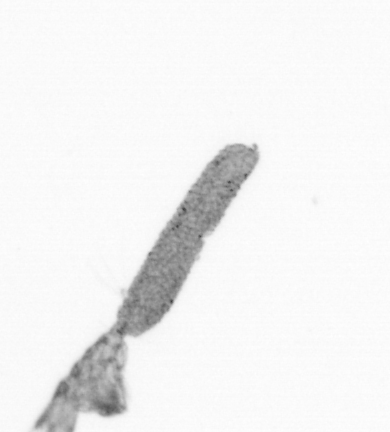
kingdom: Animalia
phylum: Arthropoda
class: Copepoda
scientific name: Copepoda
